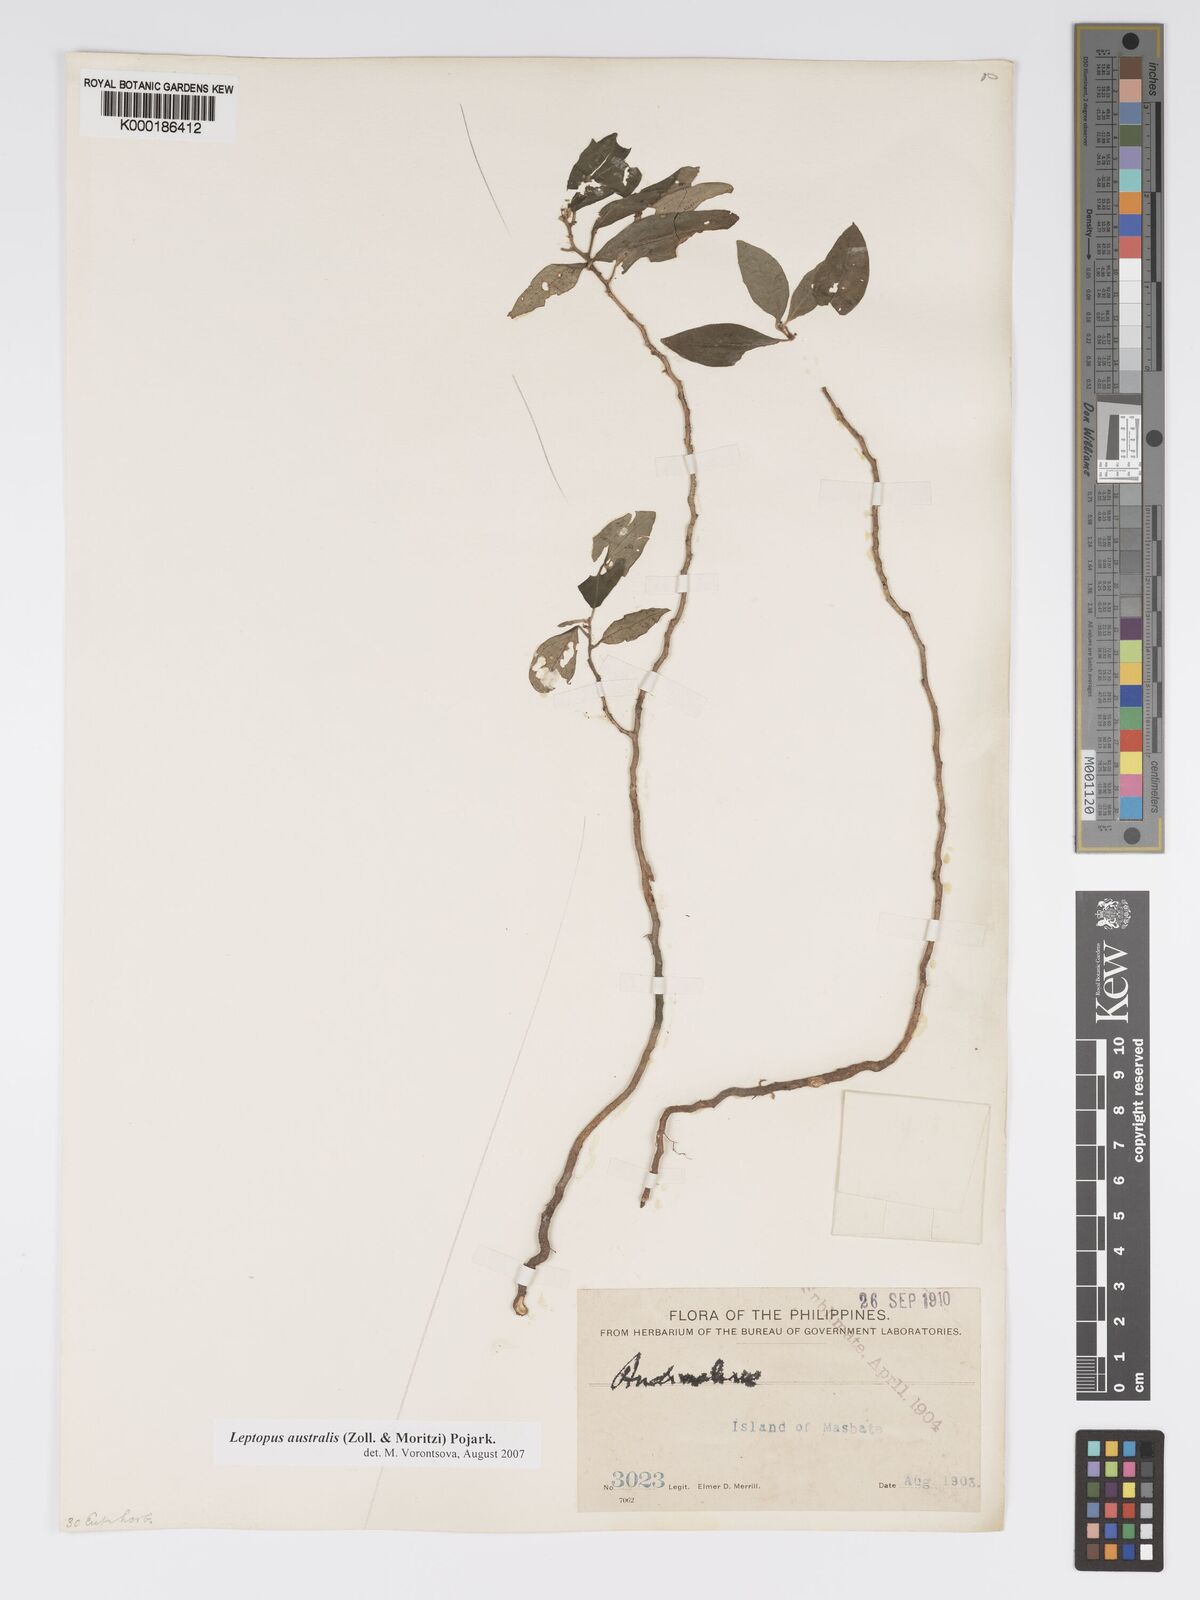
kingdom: Plantae
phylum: Tracheophyta
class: Magnoliopsida
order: Malpighiales
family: Phyllanthaceae
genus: Leptopus
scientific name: Leptopus australis
